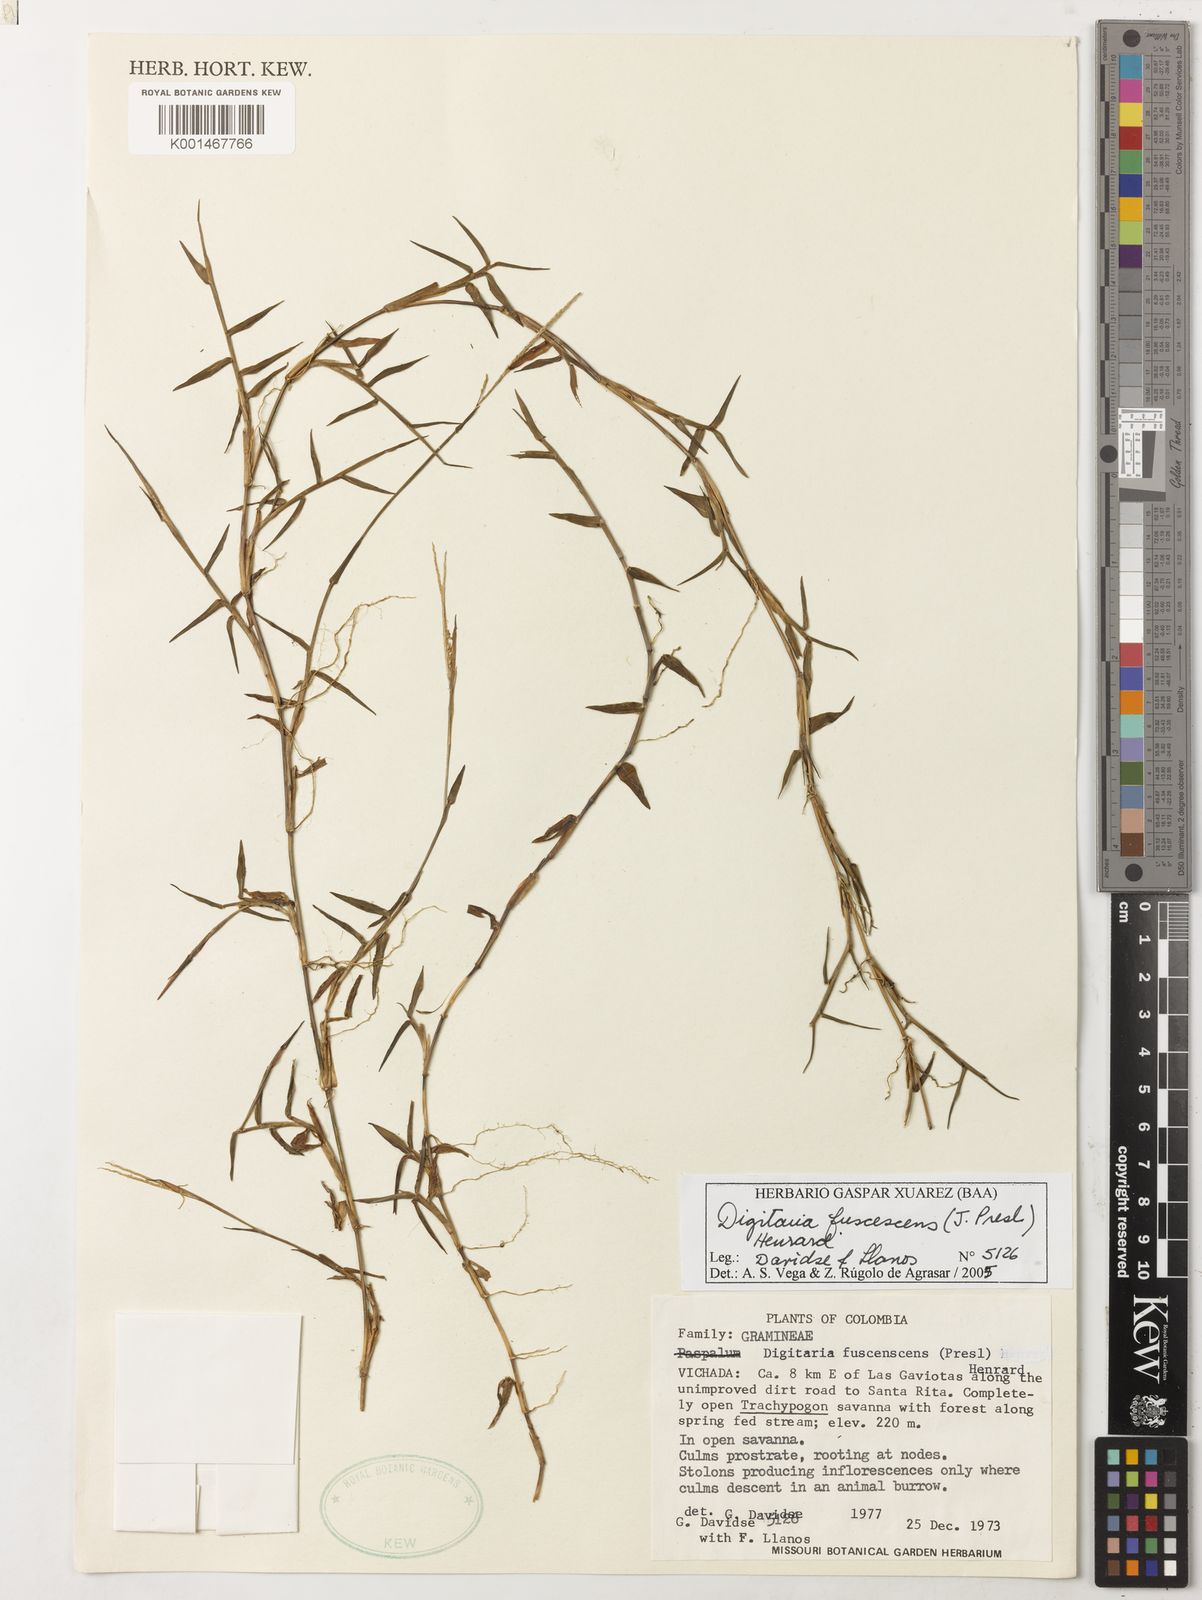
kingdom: Plantae
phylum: Tracheophyta
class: Liliopsida
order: Poales
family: Poaceae
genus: Digitaria
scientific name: Digitaria fuscescens
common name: Yellow crabgrass
